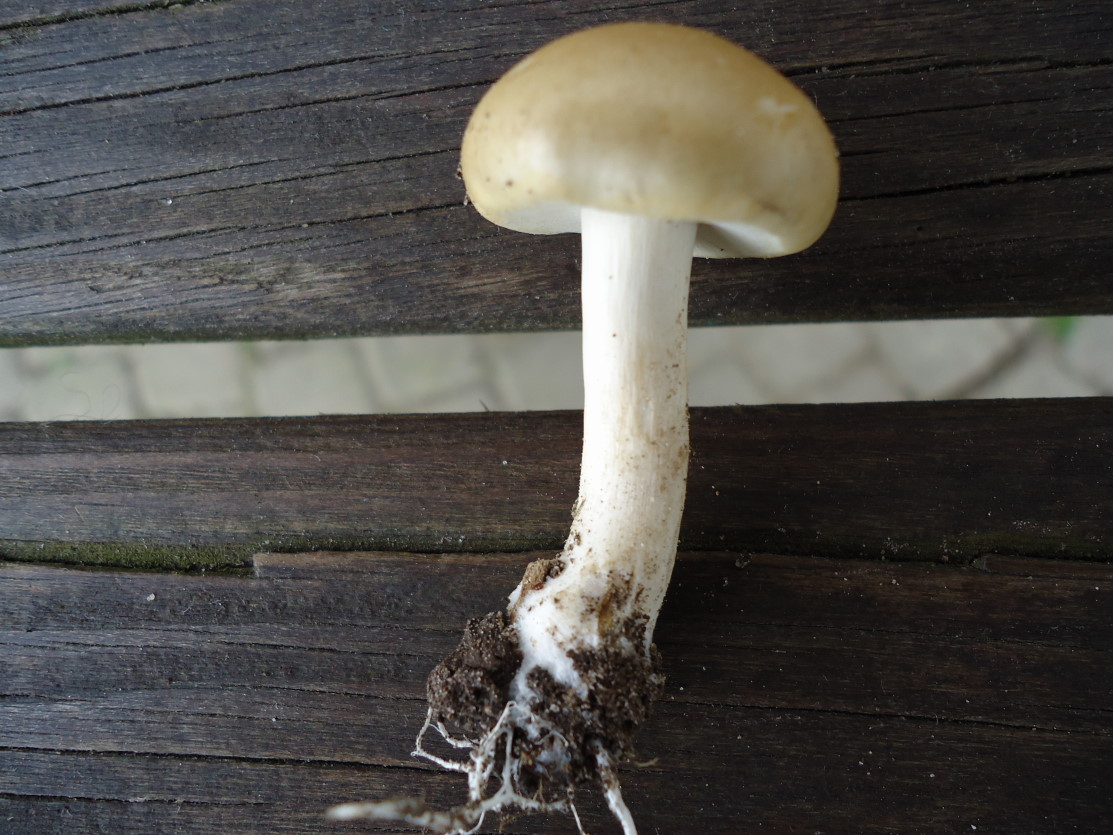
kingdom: Fungi
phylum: Basidiomycota
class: Agaricomycetes
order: Agaricales
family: Strophariaceae
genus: Agrocybe
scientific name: Agrocybe praecox
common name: tidlig agerhat
